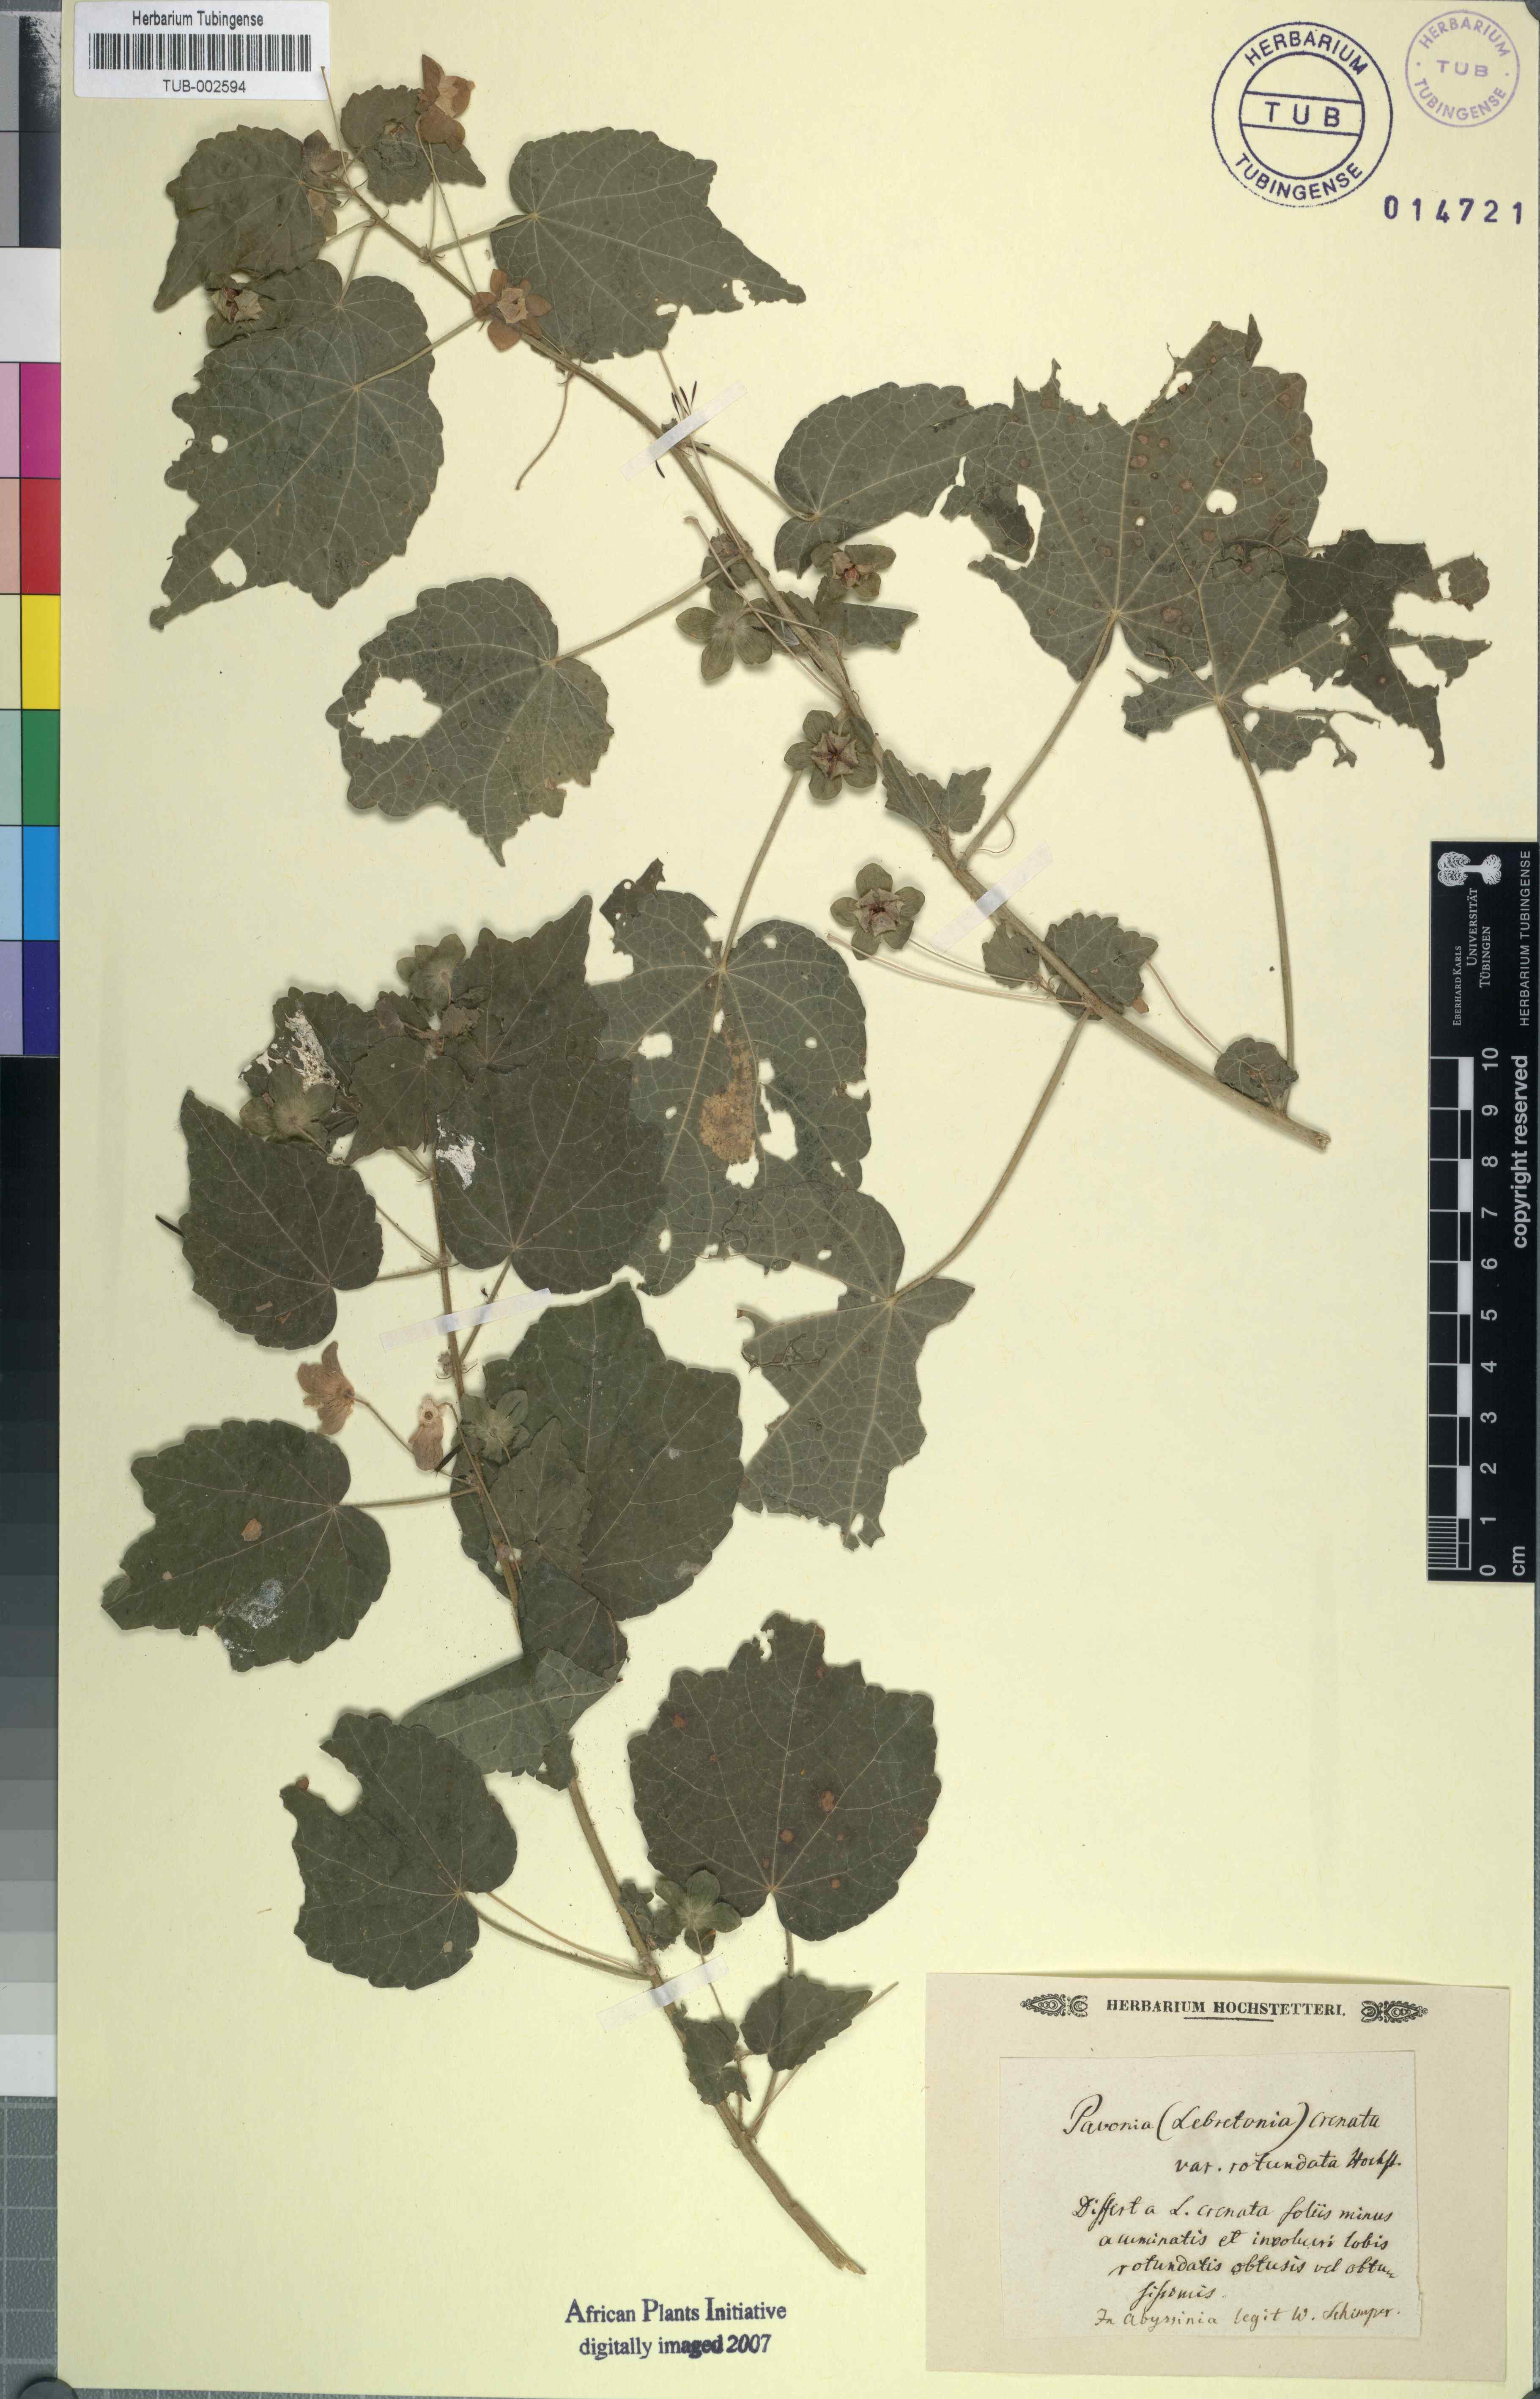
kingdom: Plantae
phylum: Tracheophyta
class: Magnoliopsida
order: Malvales
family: Malvaceae
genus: Pavonia
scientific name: Pavonia burchellii
